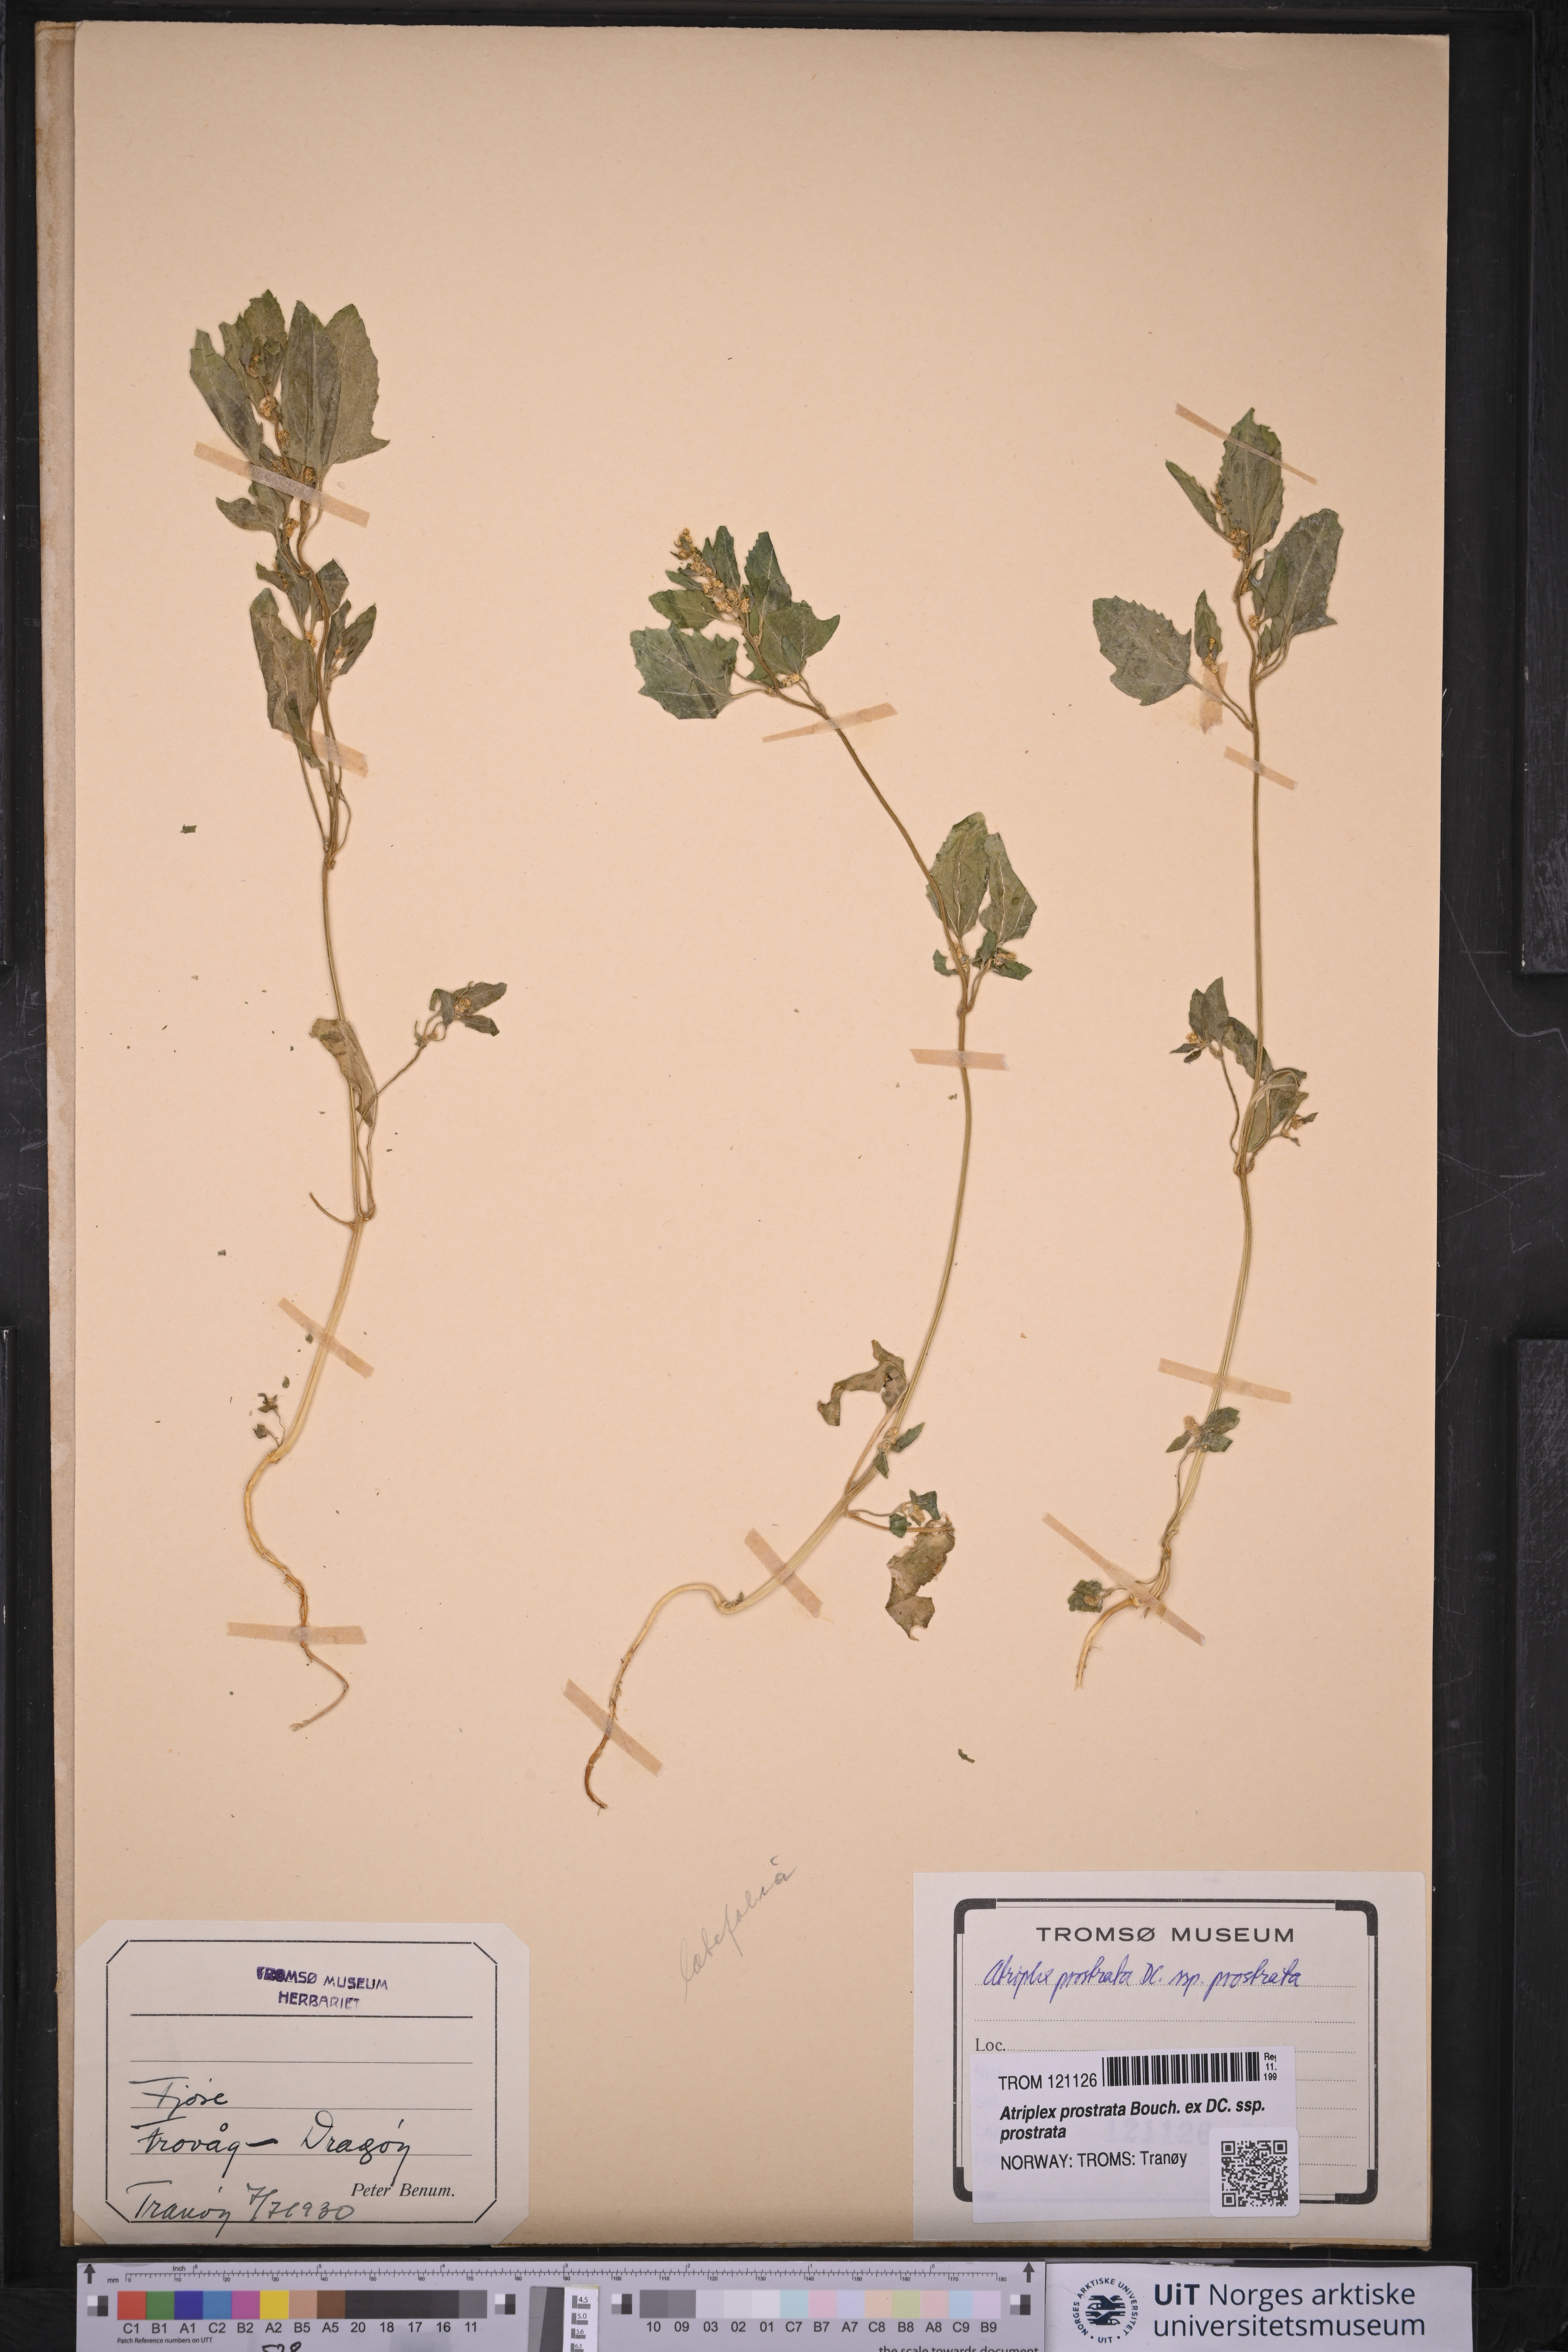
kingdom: Plantae
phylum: Tracheophyta
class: Magnoliopsida
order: Caryophyllales
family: Amaranthaceae
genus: Atriplex
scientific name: Atriplex prostrata
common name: Spear-leaved orache
